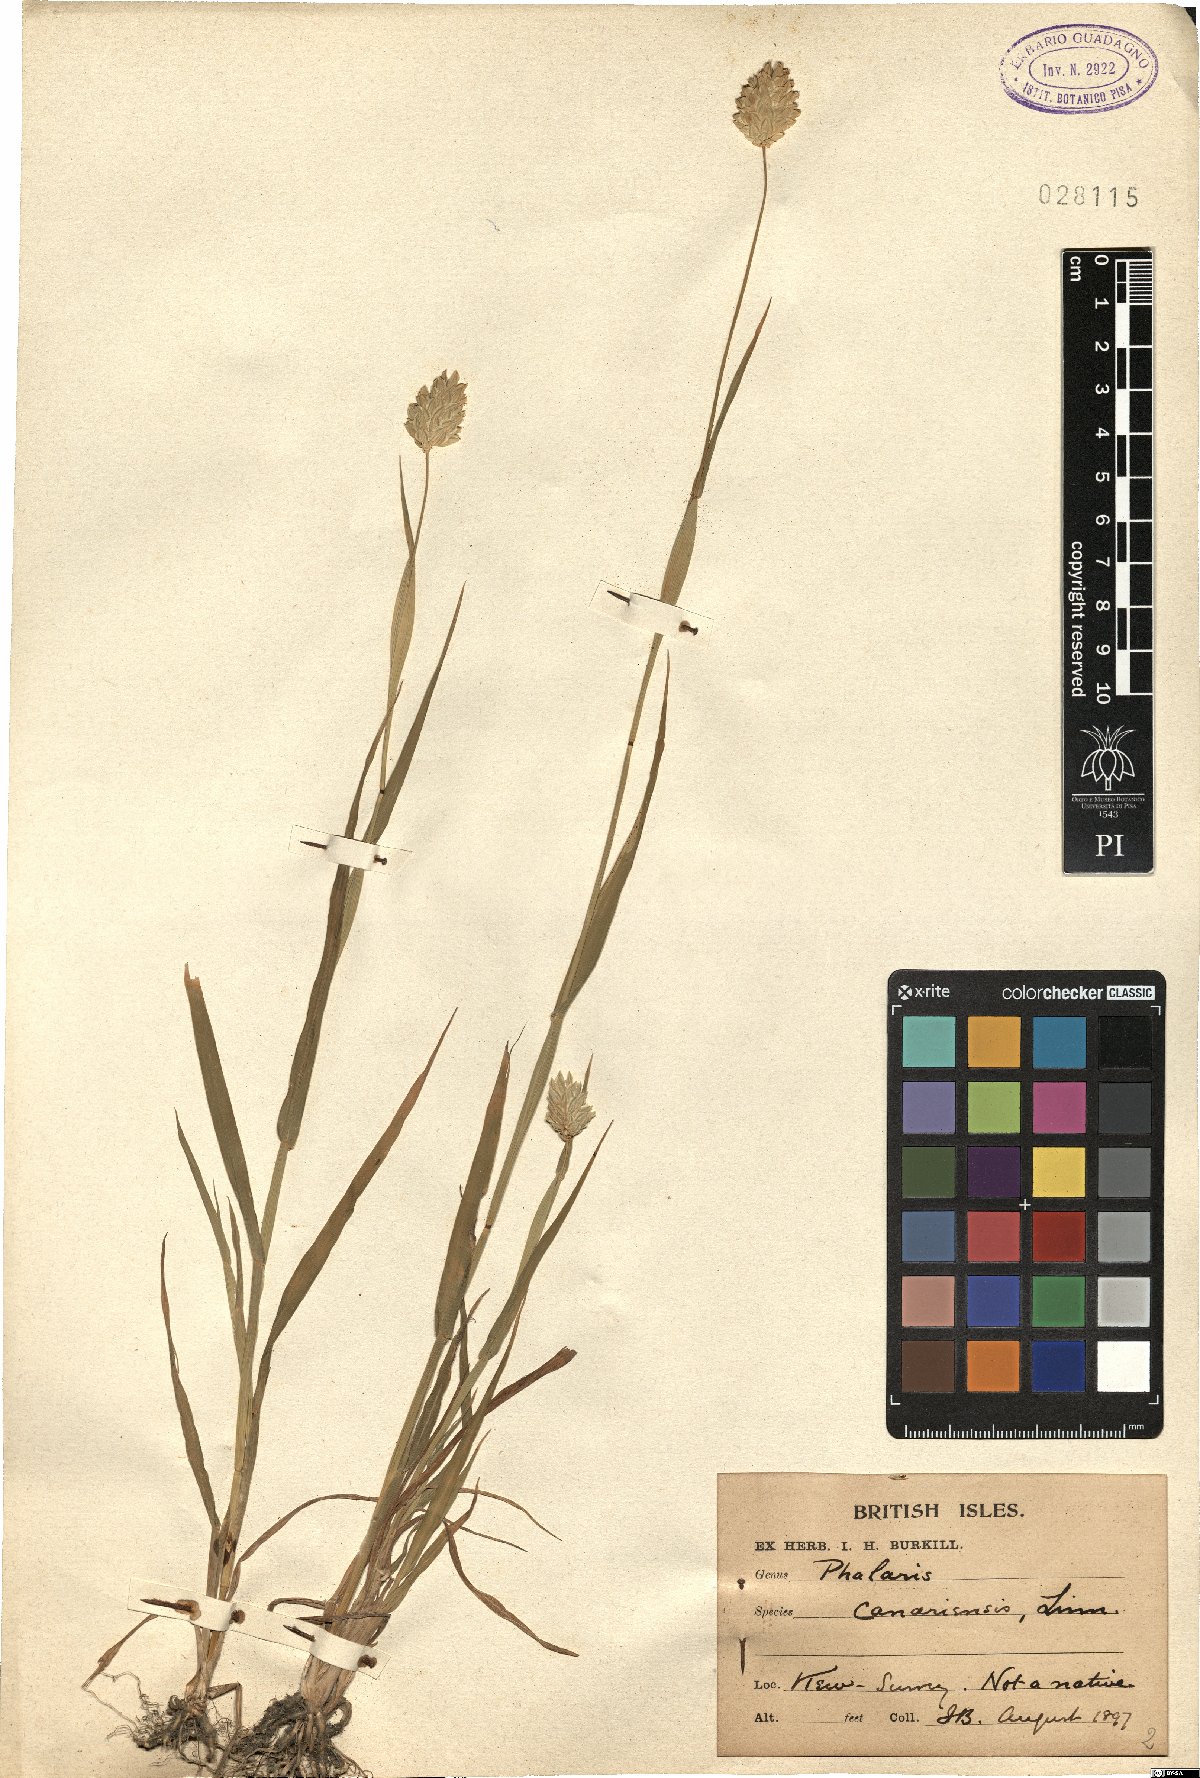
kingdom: Plantae
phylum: Tracheophyta
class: Liliopsida
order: Poales
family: Poaceae
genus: Phalaris
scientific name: Phalaris canariensis
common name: Annual canarygrass
